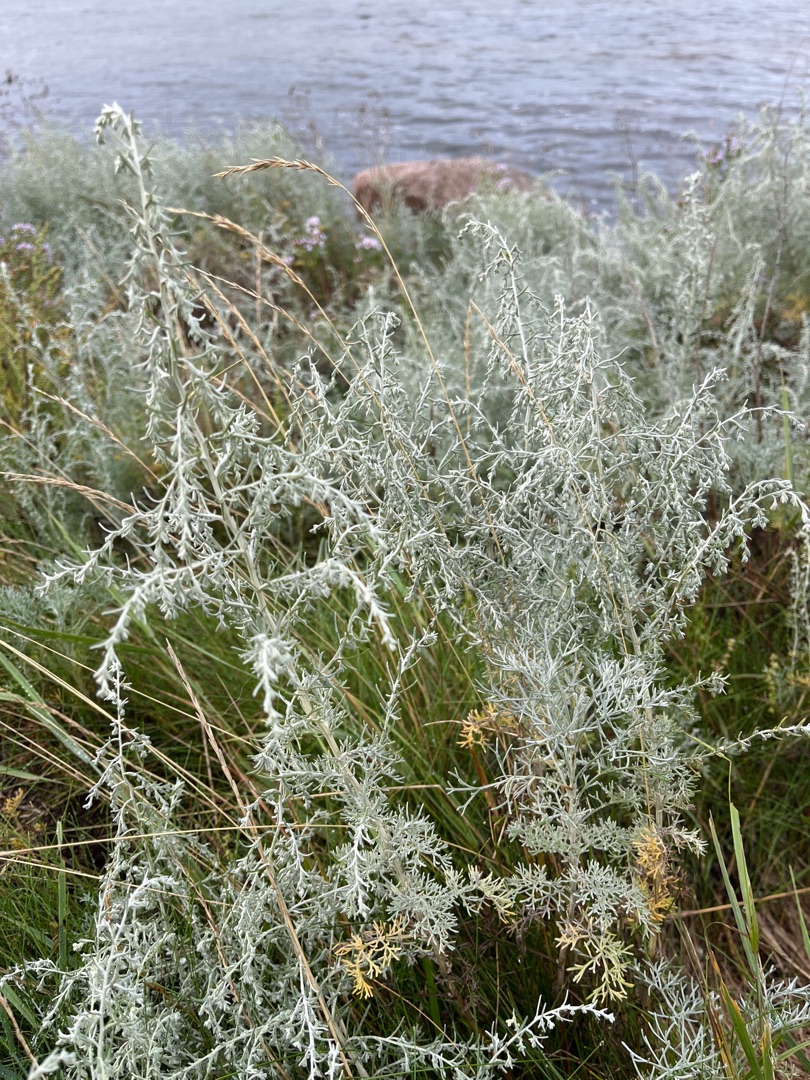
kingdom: Plantae
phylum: Tracheophyta
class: Magnoliopsida
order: Asterales
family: Asteraceae
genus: Artemisia
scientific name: Artemisia maritima
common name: Strandmalurt
